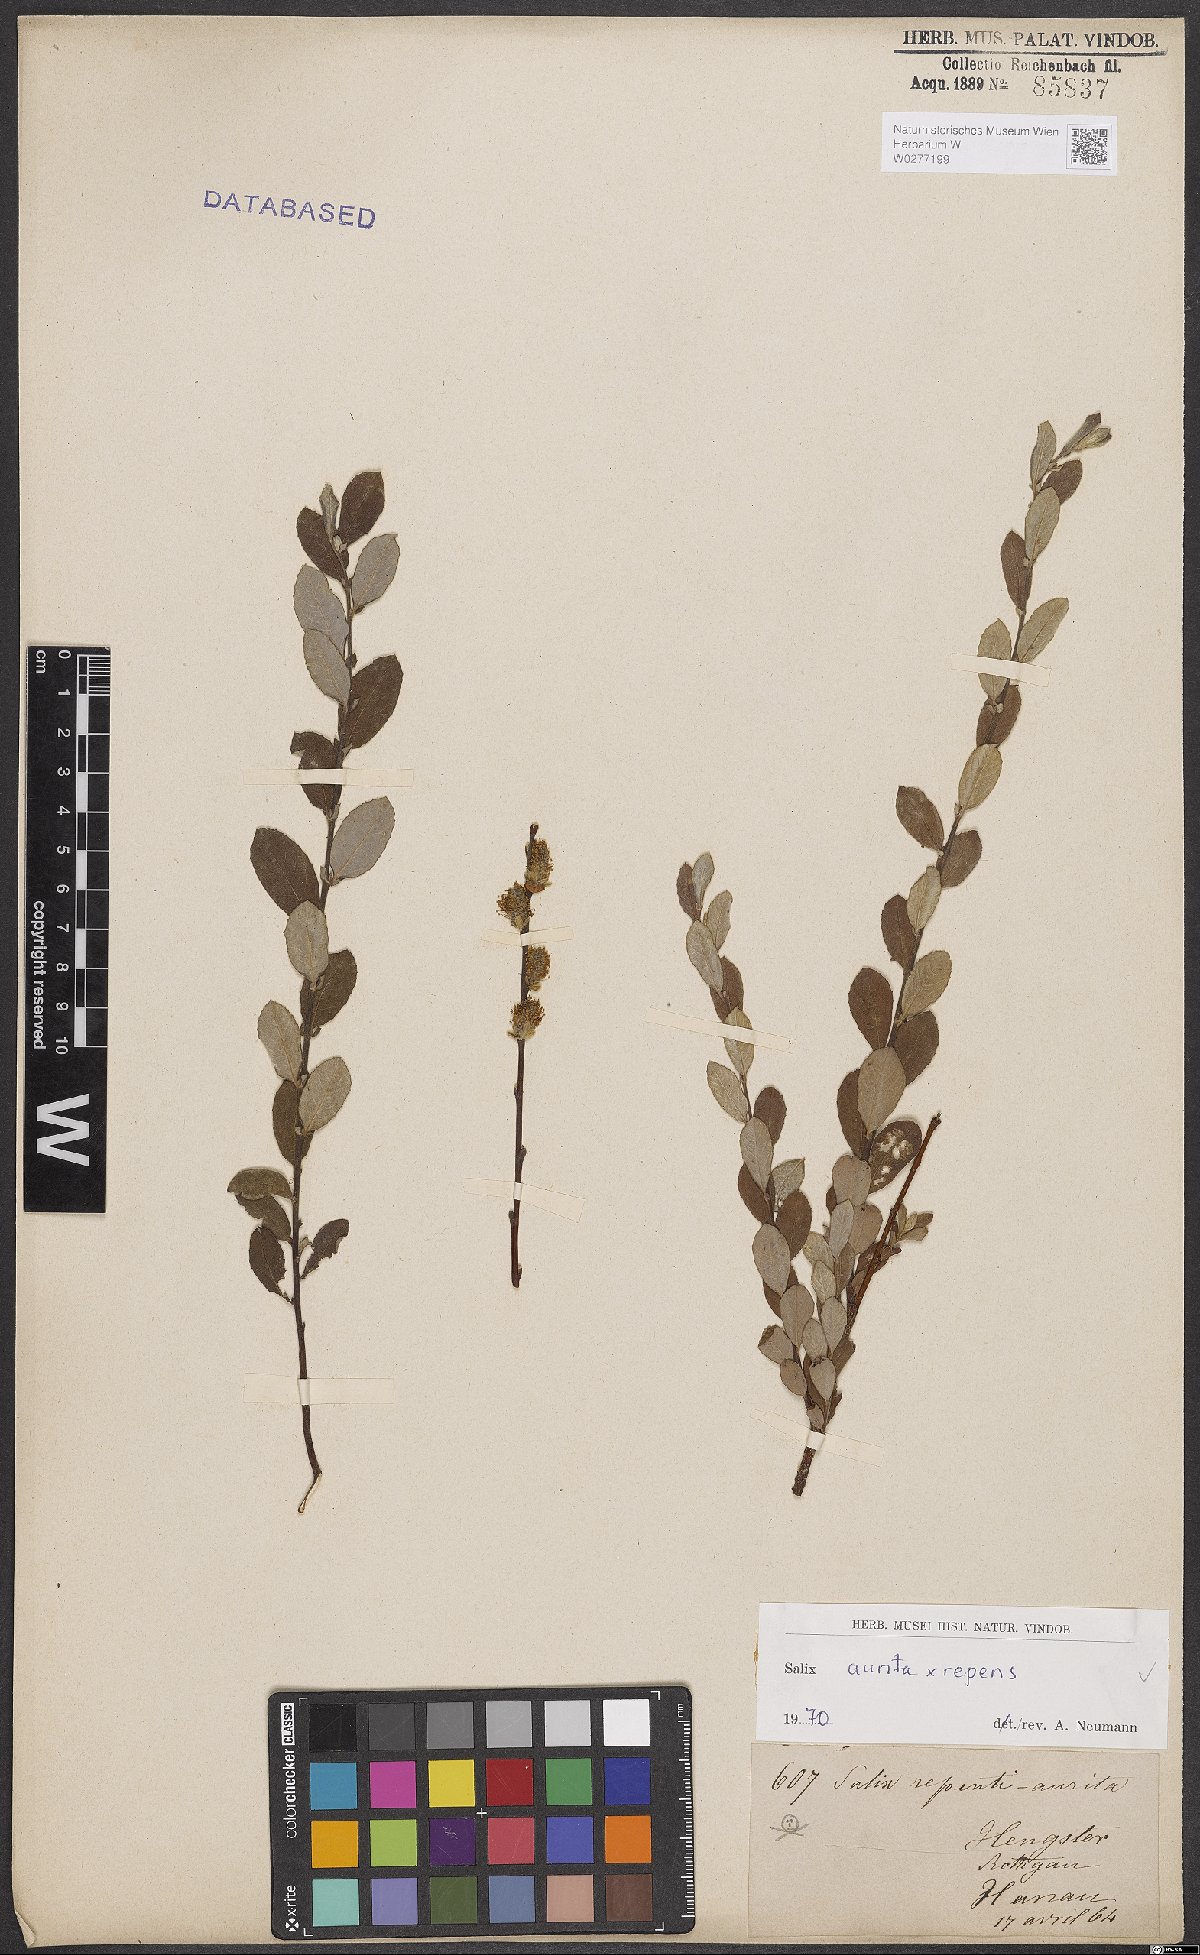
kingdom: Plantae
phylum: Tracheophyta
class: Magnoliopsida
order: Malpighiales
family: Salicaceae
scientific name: Salicaceae
